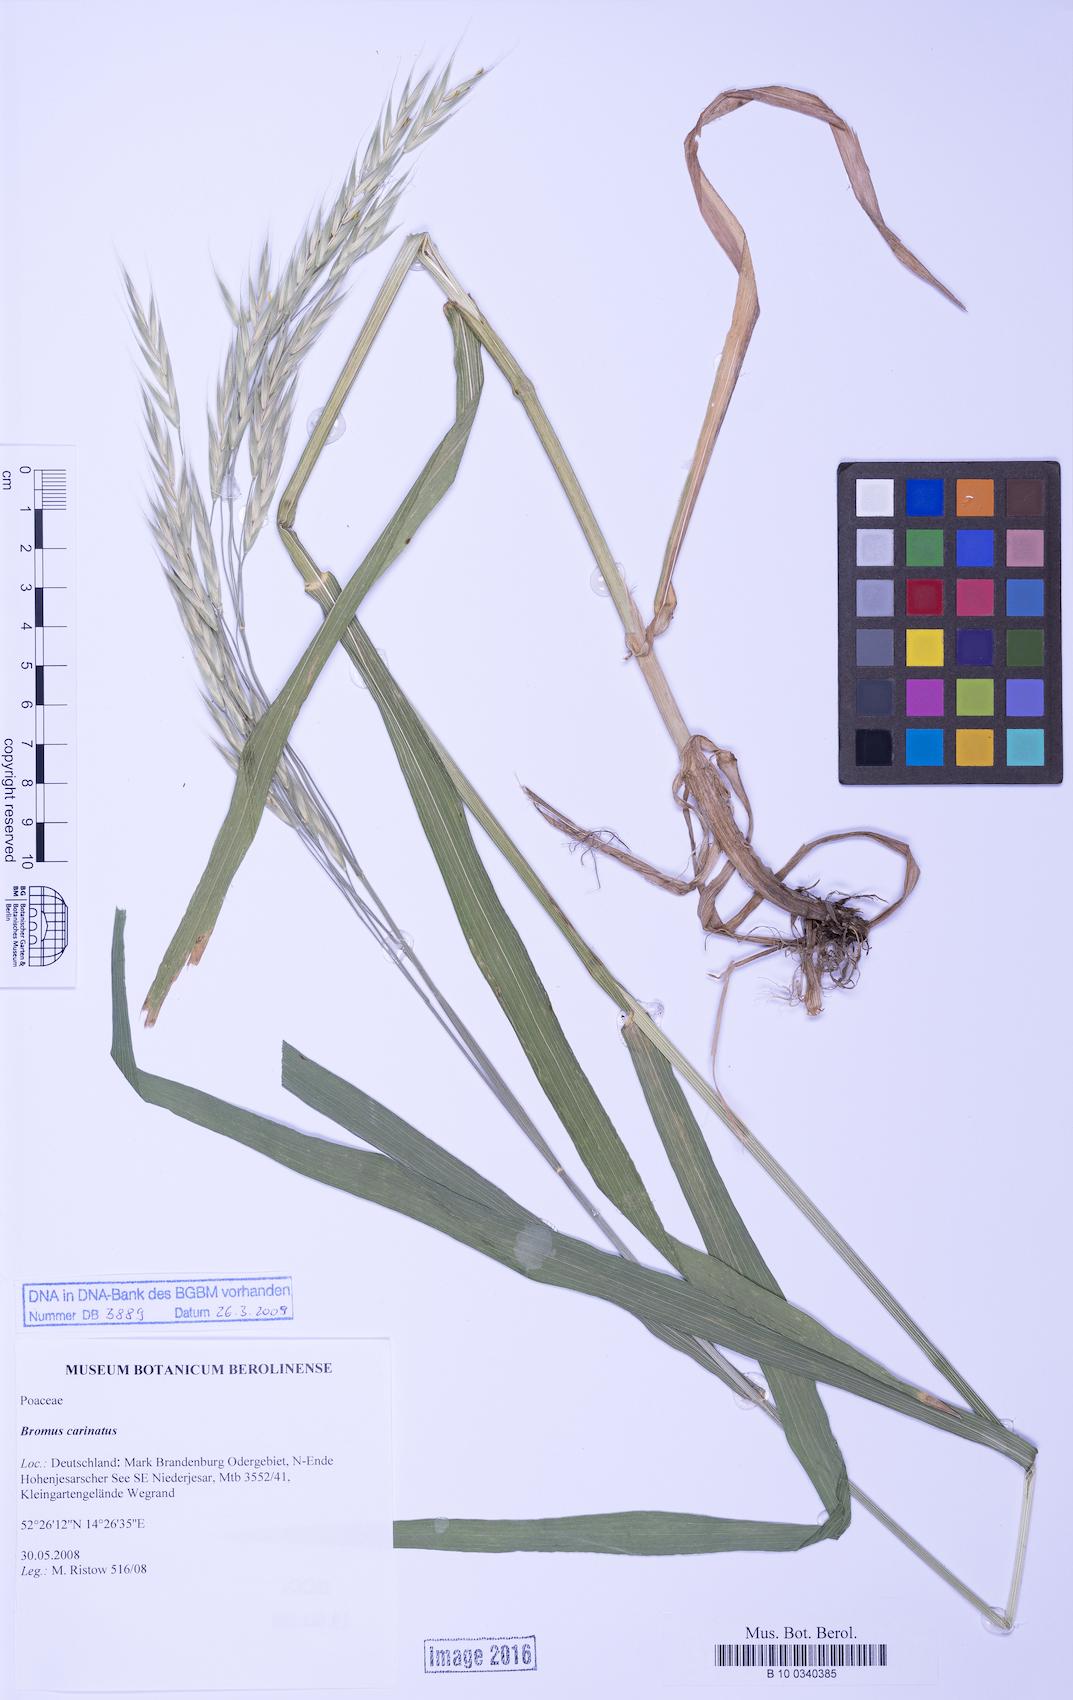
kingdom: Plantae
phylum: Tracheophyta
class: Liliopsida
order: Poales
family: Poaceae
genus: Bromus
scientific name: Bromus carinatus
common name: Mountain brome
